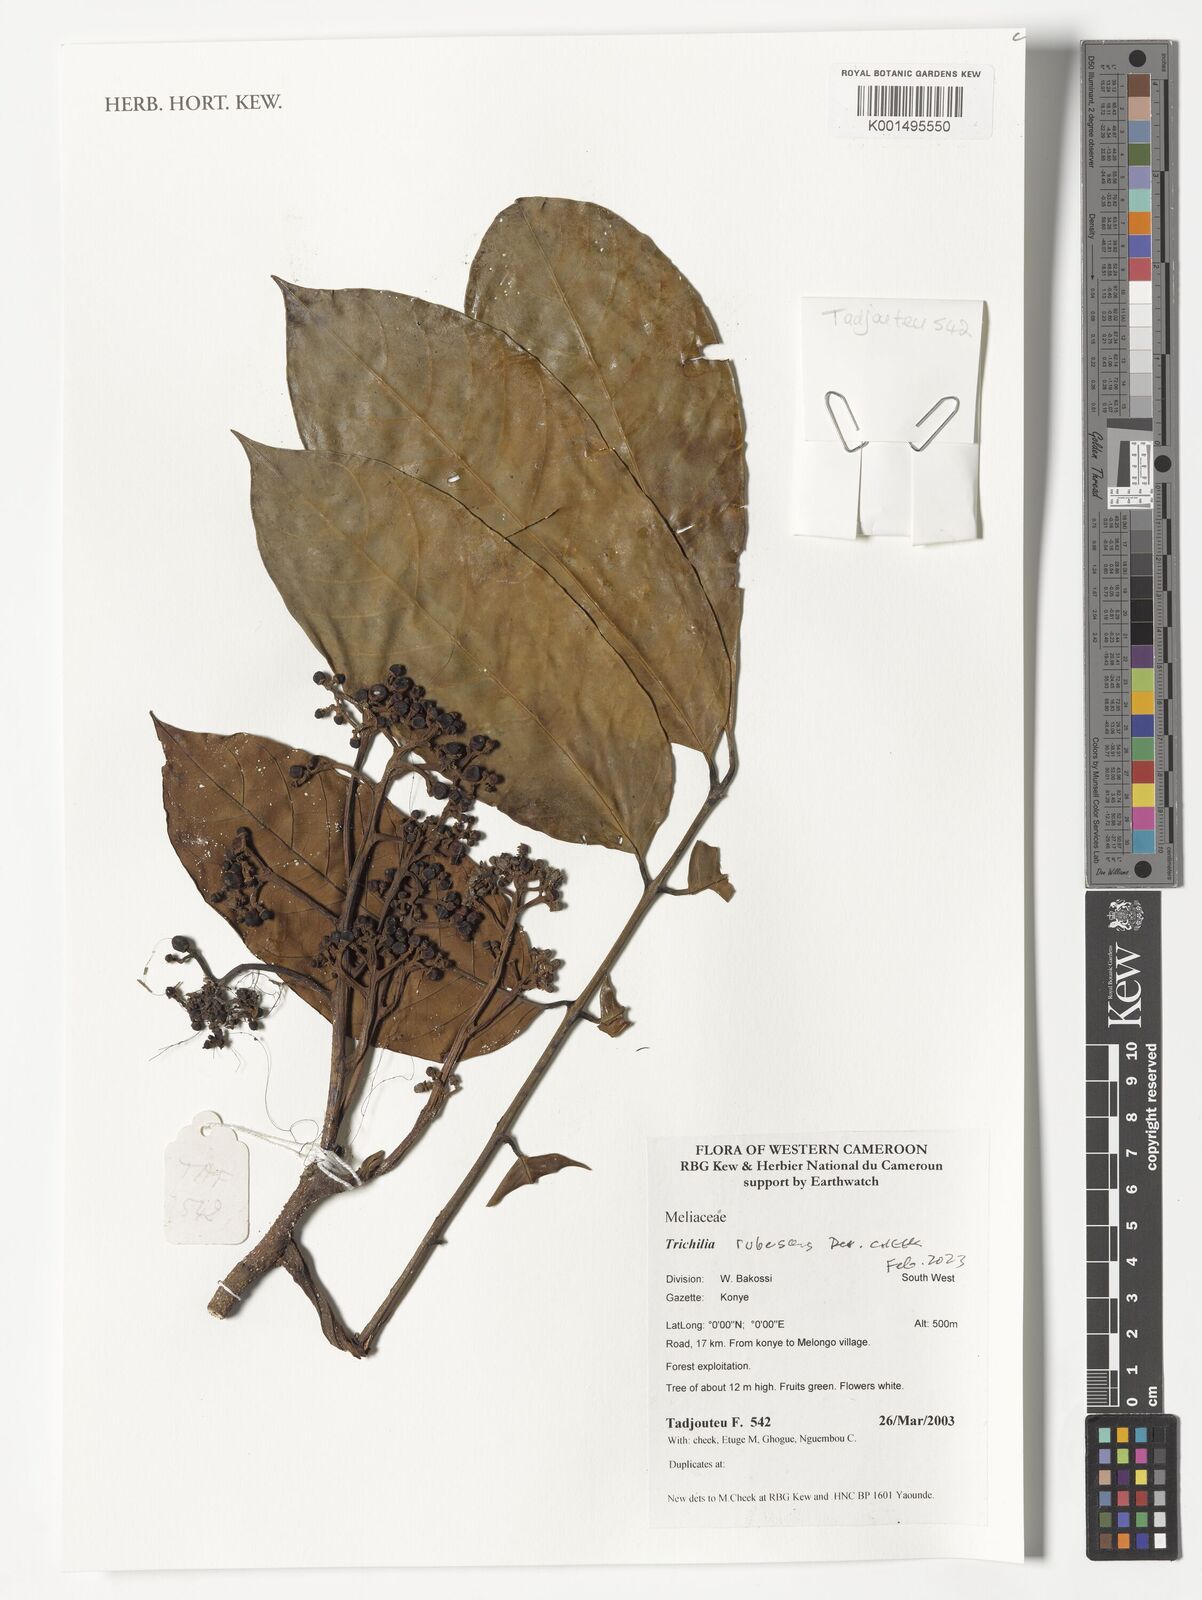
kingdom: Plantae
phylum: Tracheophyta
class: Magnoliopsida
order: Sapindales
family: Meliaceae
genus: Trichilia
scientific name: Trichilia rubescens
